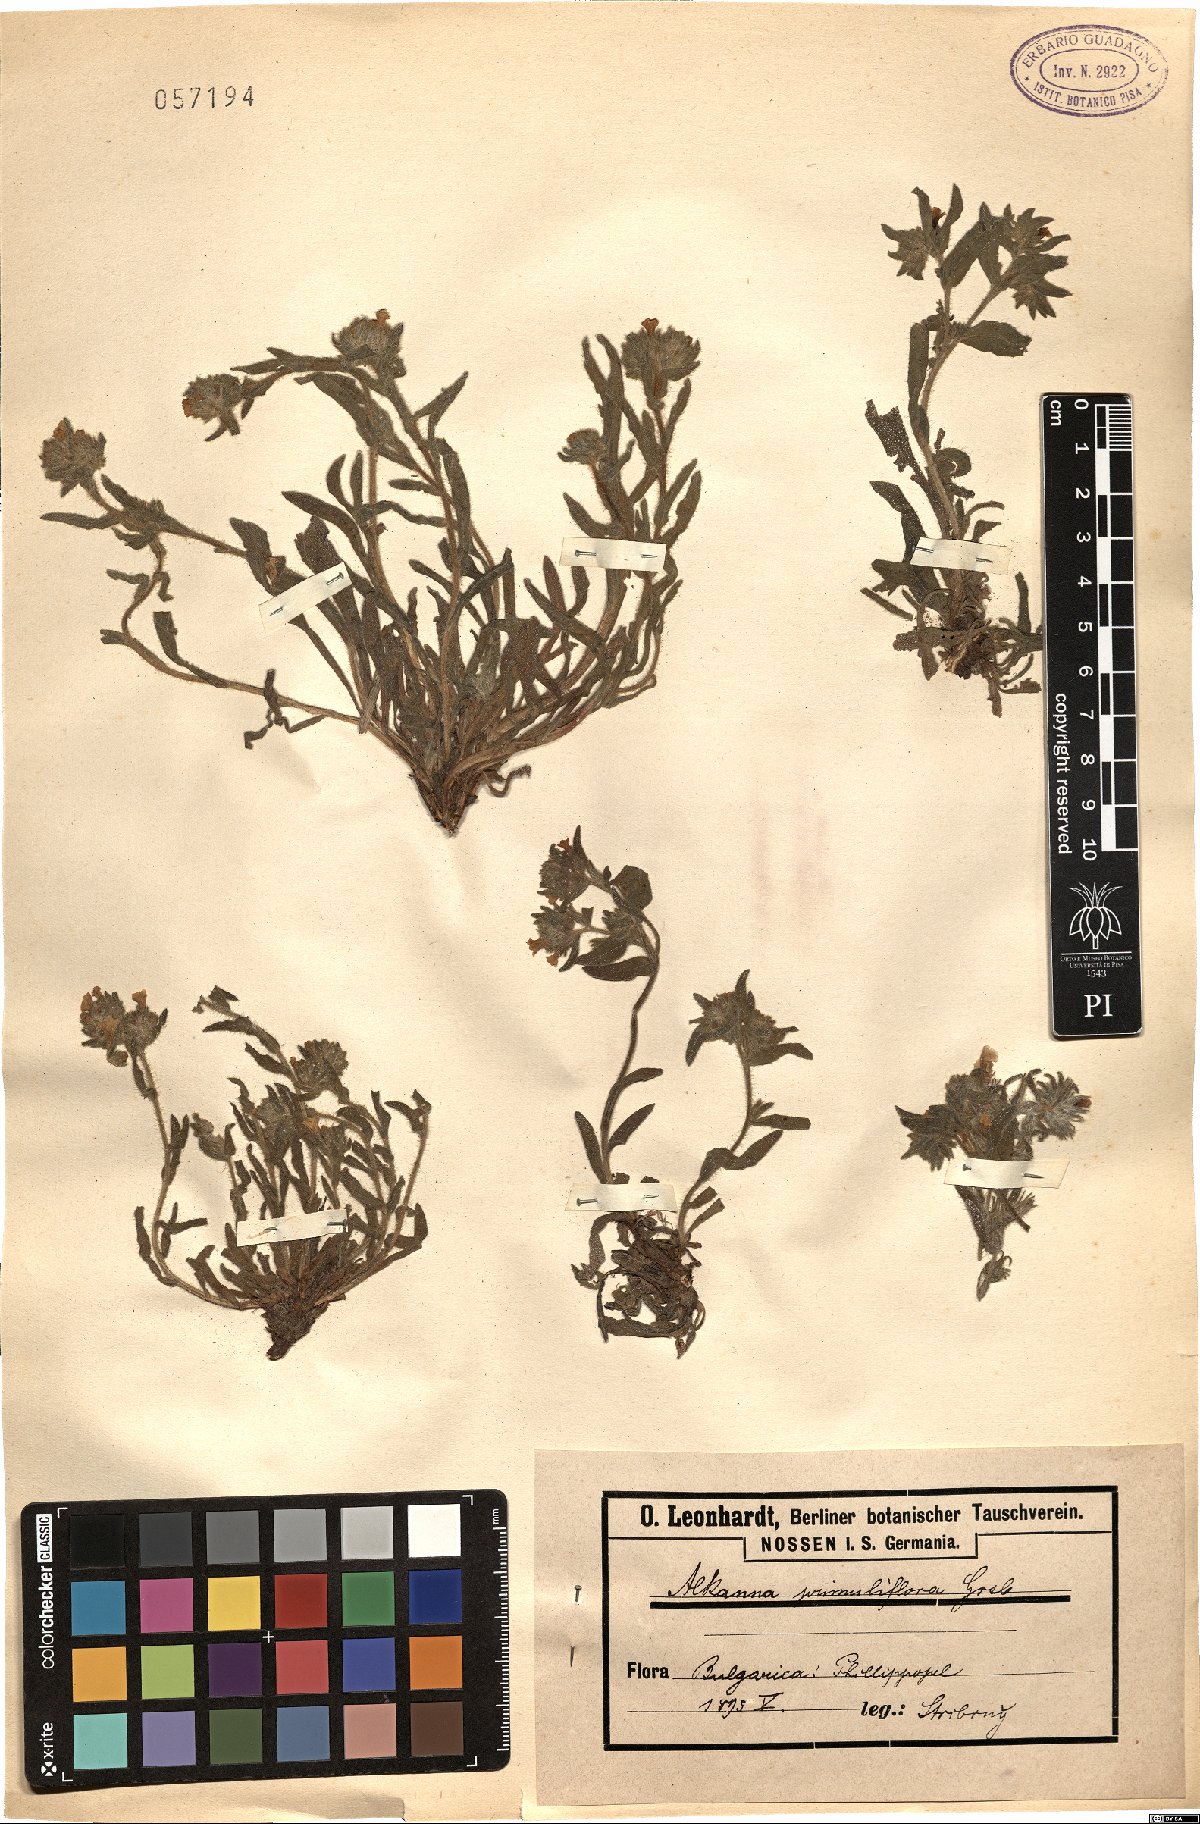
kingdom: Plantae
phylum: Tracheophyta
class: Magnoliopsida
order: Boraginales
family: Boraginaceae
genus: Alkanna
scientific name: Alkanna primuliflora
